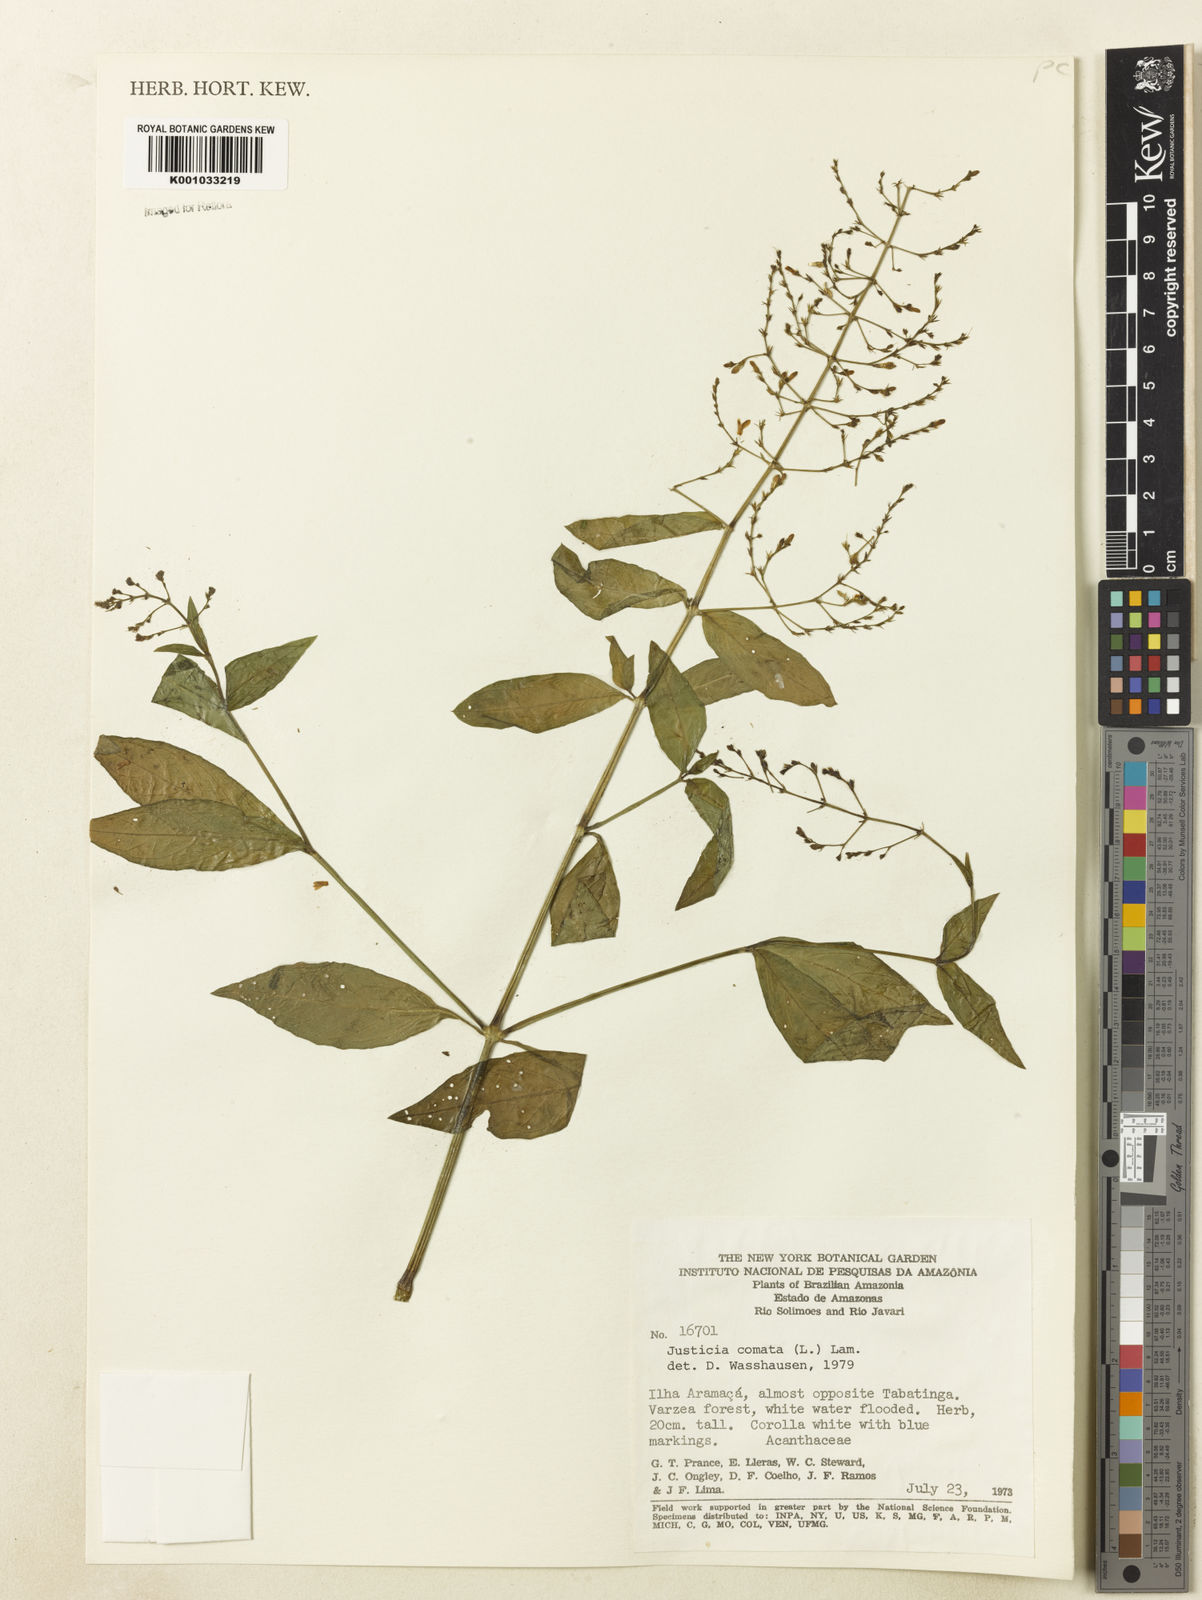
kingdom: Plantae
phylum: Tracheophyta
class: Magnoliopsida
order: Lamiales
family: Acanthaceae
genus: Dianthera
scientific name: Dianthera comata
